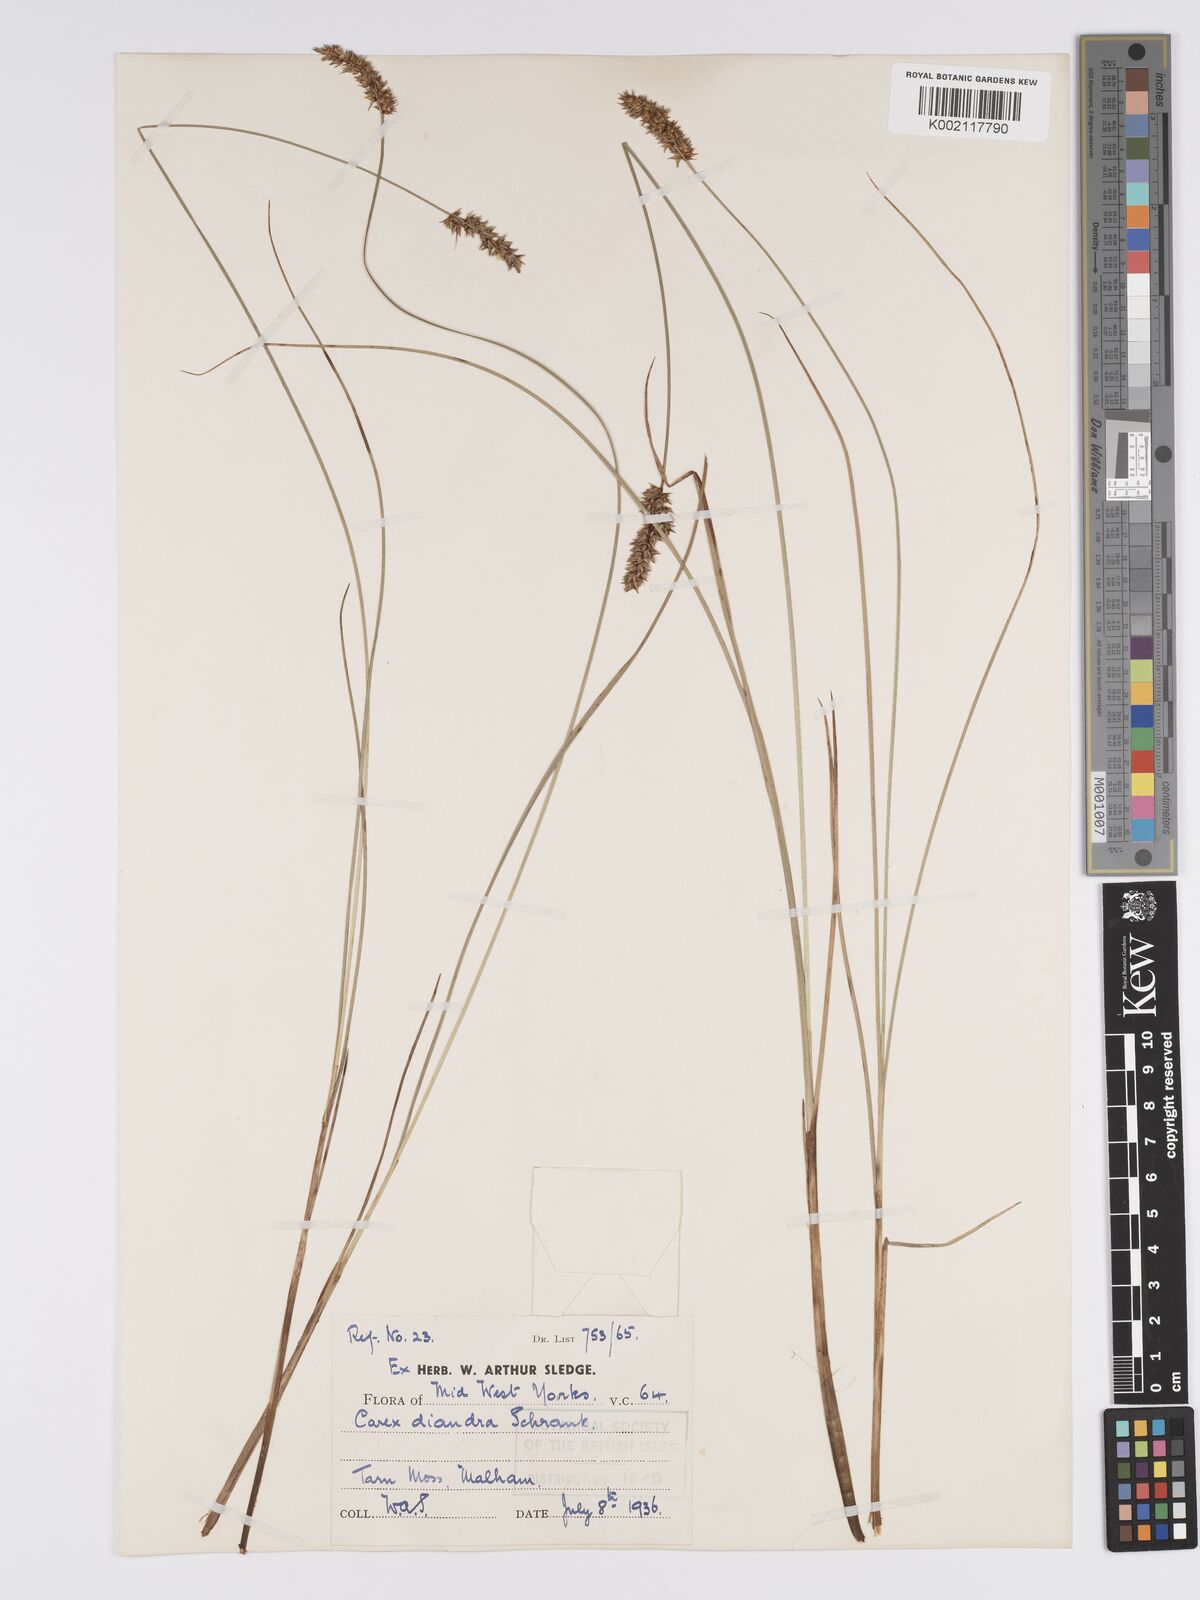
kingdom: Plantae
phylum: Tracheophyta
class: Liliopsida
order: Poales
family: Cyperaceae
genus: Carex
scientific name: Carex diandra
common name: Lesser tussock-sedge
